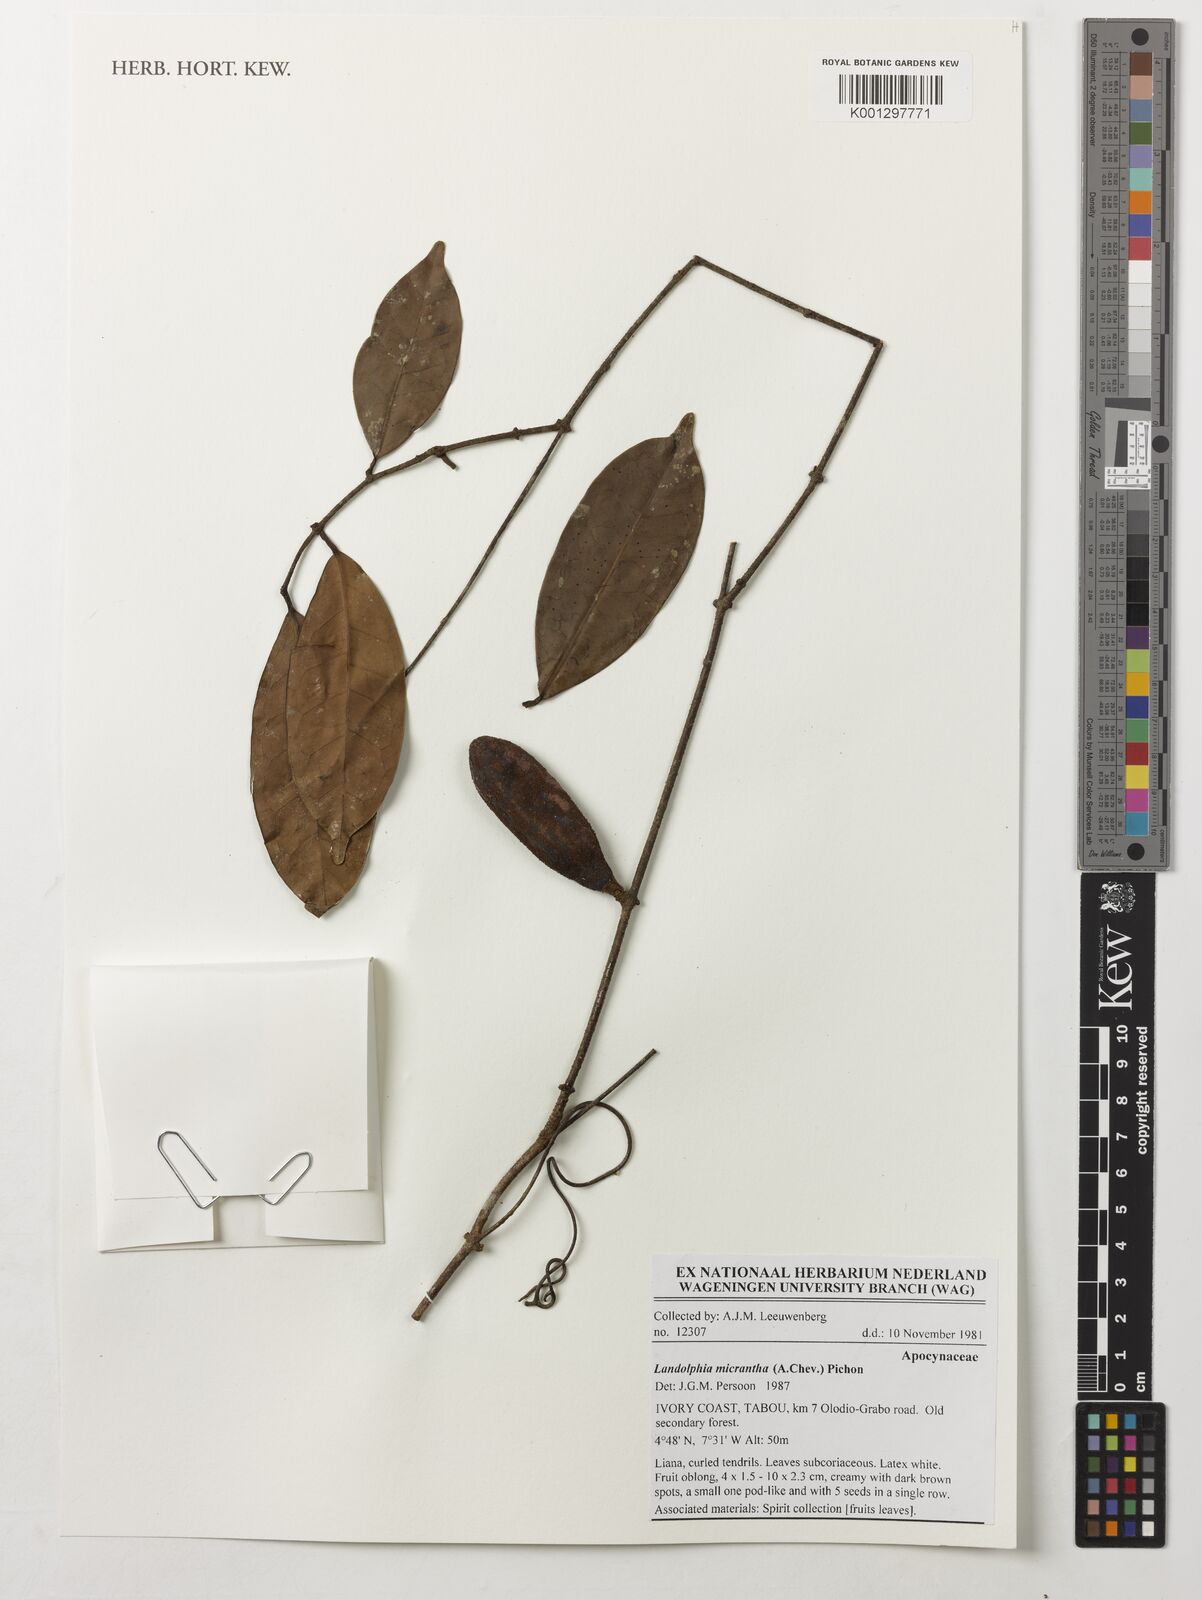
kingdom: Plantae
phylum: Tracheophyta
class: Magnoliopsida
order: Gentianales
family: Apocynaceae
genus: Landolphia
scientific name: Landolphia micrantha
